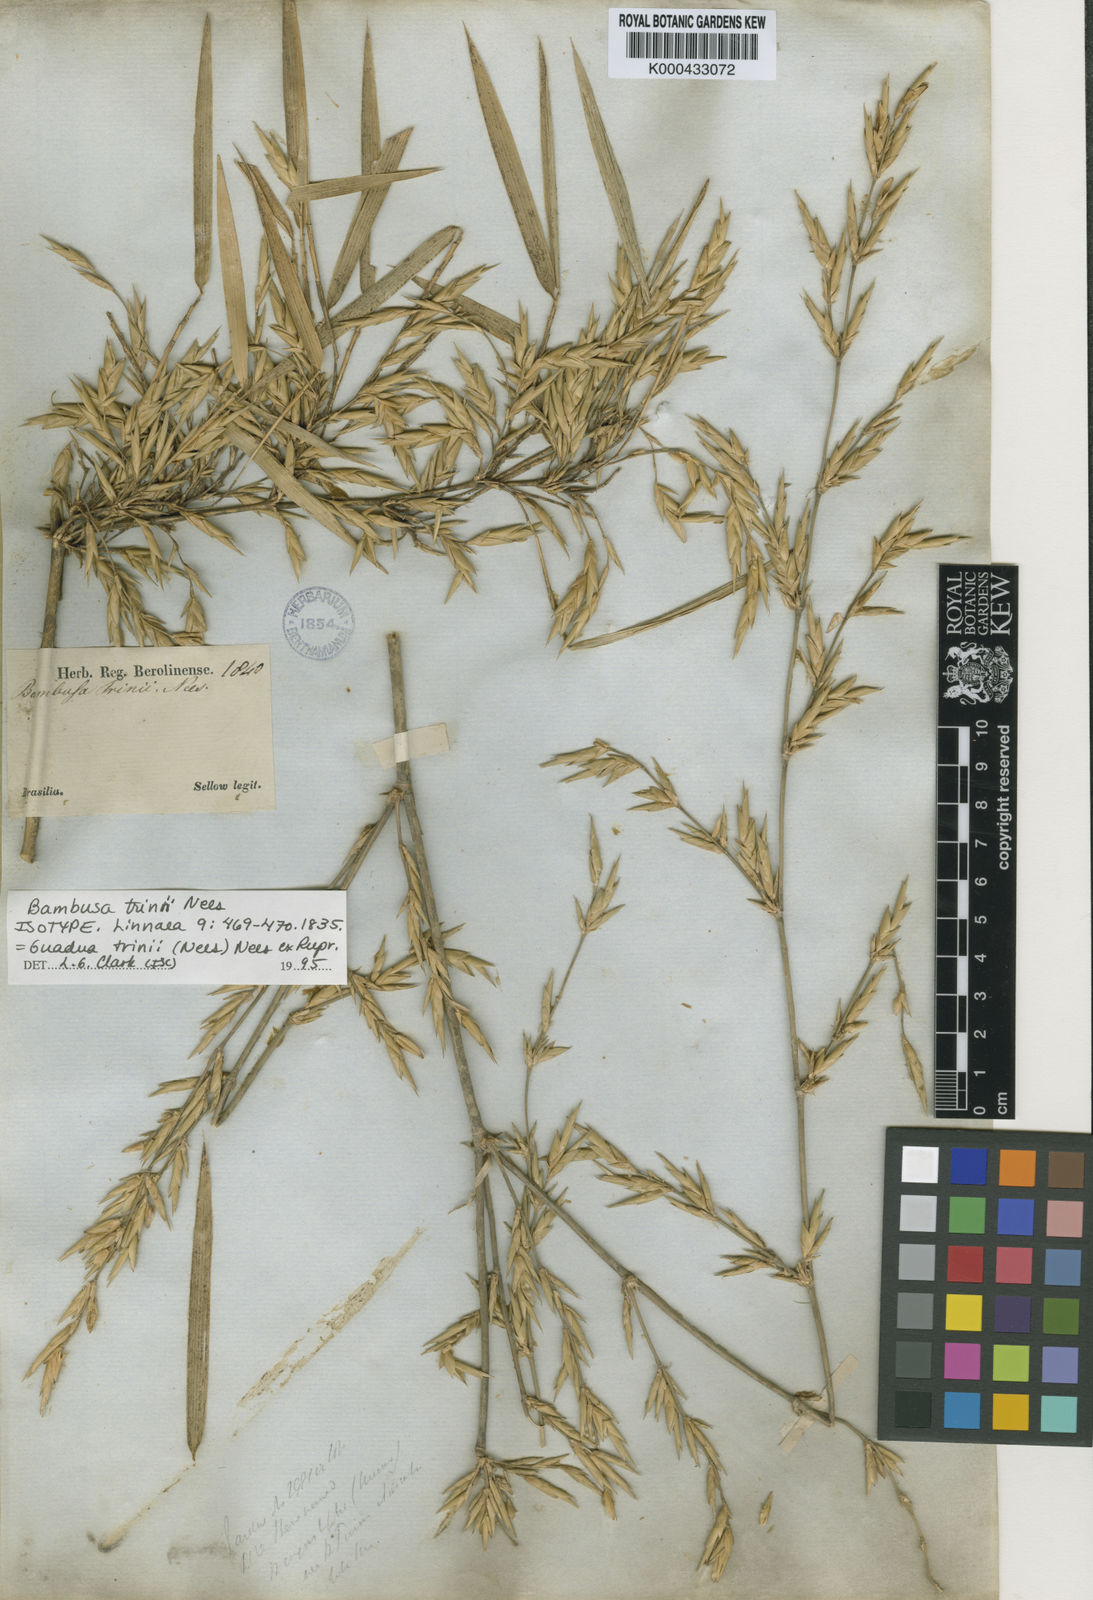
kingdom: Plantae
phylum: Tracheophyta
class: Liliopsida
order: Poales
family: Poaceae
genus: Guadua
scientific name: Guadua trinii
